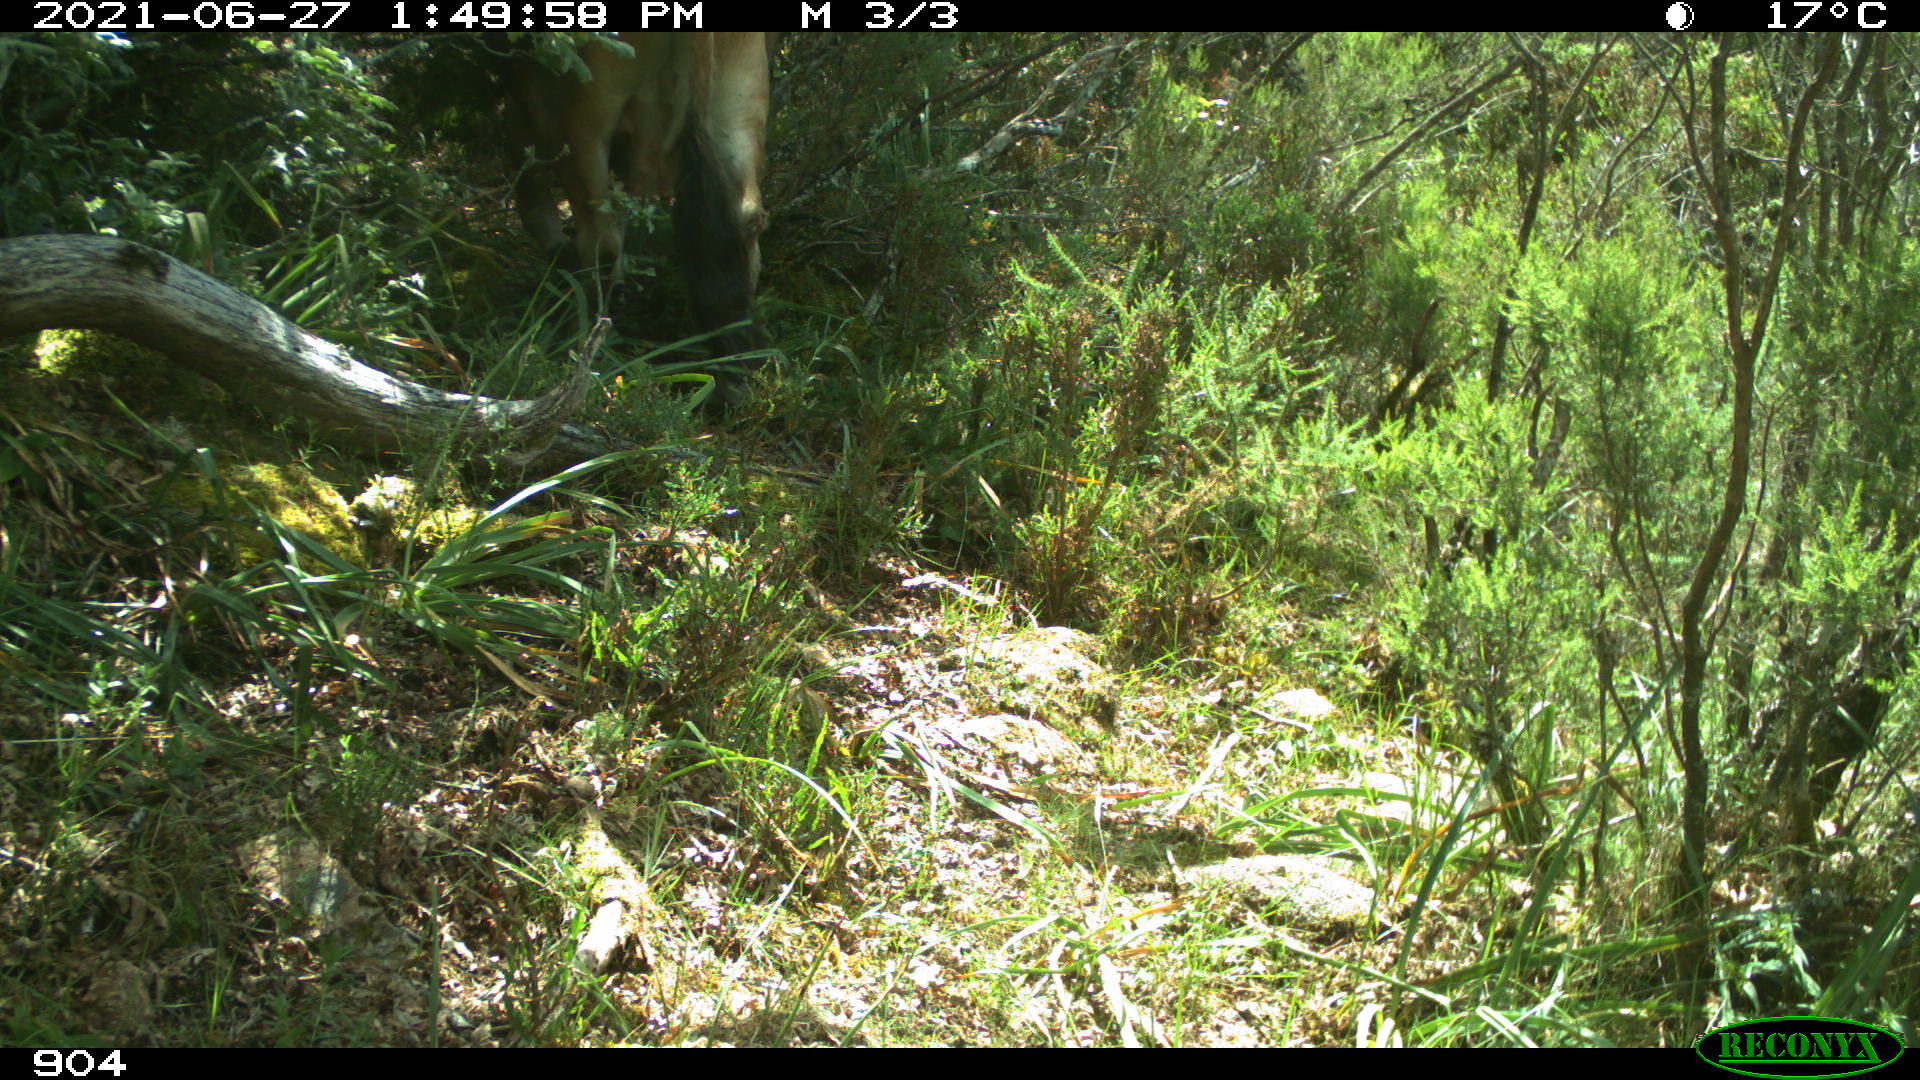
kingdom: Animalia
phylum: Chordata
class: Mammalia
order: Artiodactyla
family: Bovidae
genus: Bos
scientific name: Bos taurus
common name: Domesticated cattle
